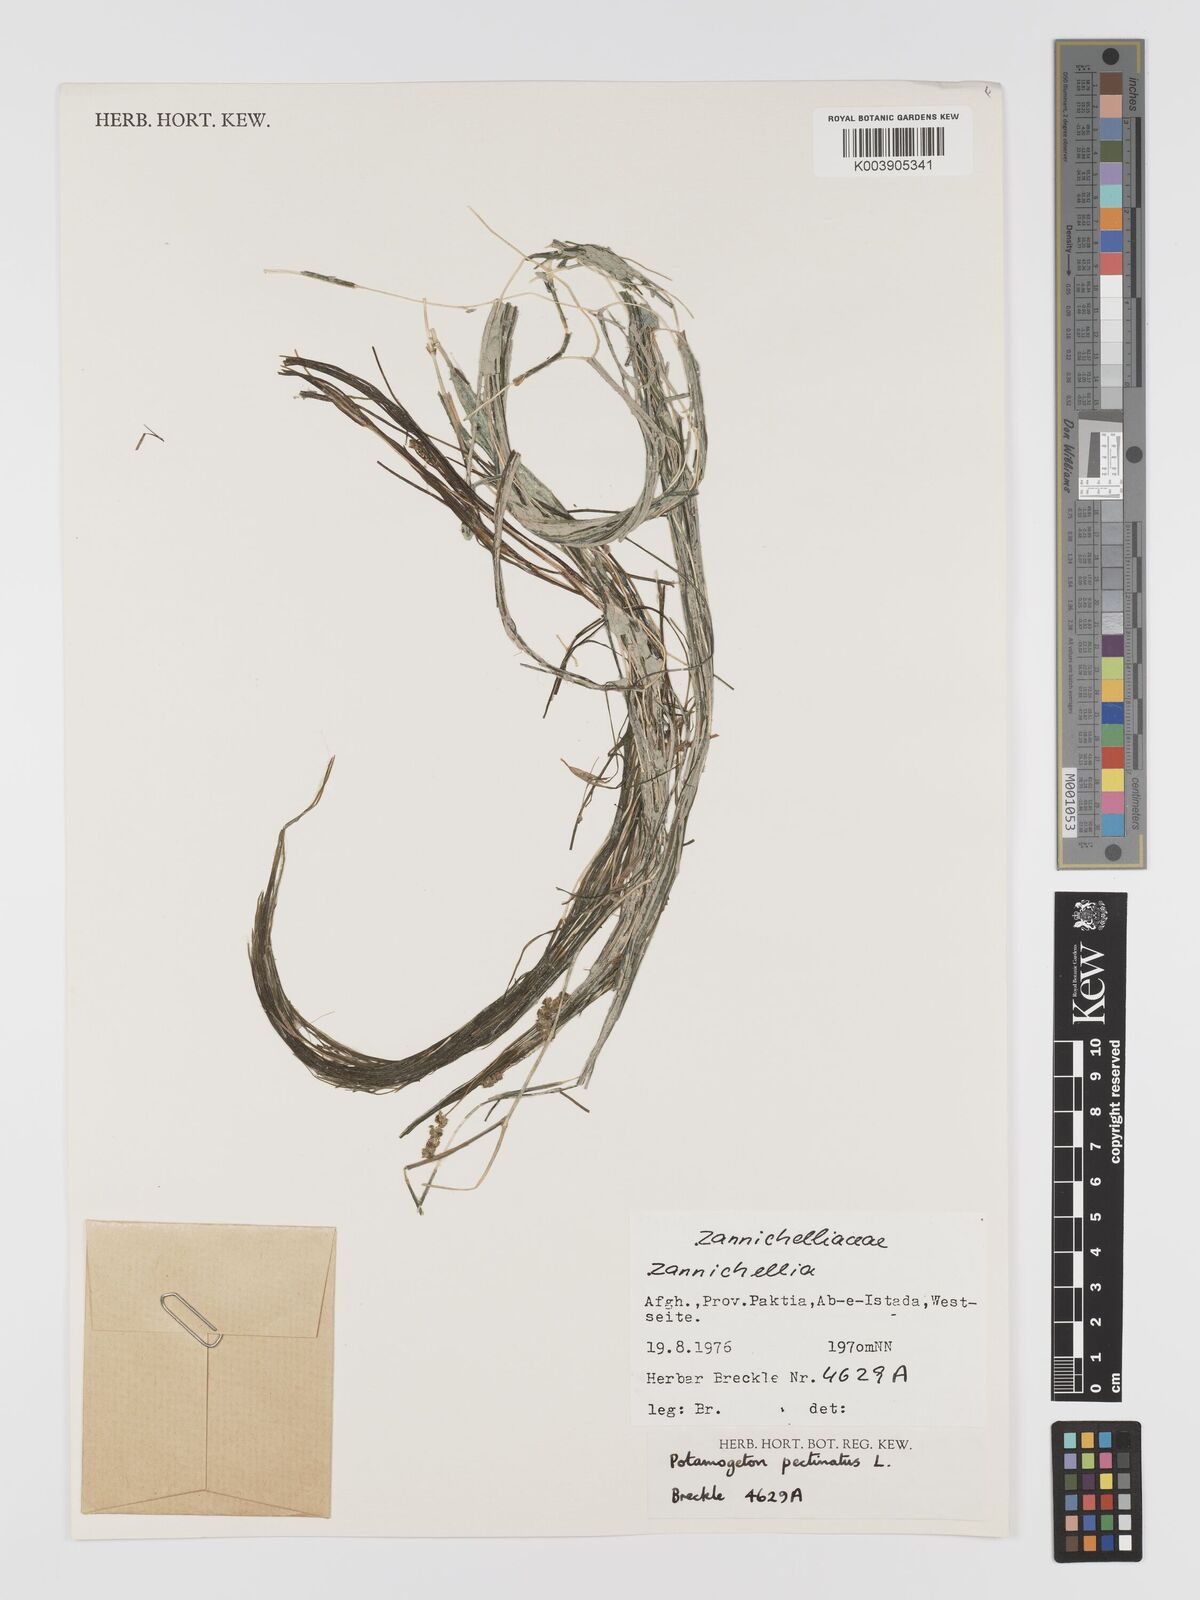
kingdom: Plantae
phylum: Tracheophyta
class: Liliopsida
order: Alismatales
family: Potamogetonaceae
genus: Stuckenia
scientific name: Stuckenia pectinata
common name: Sago pondweed
